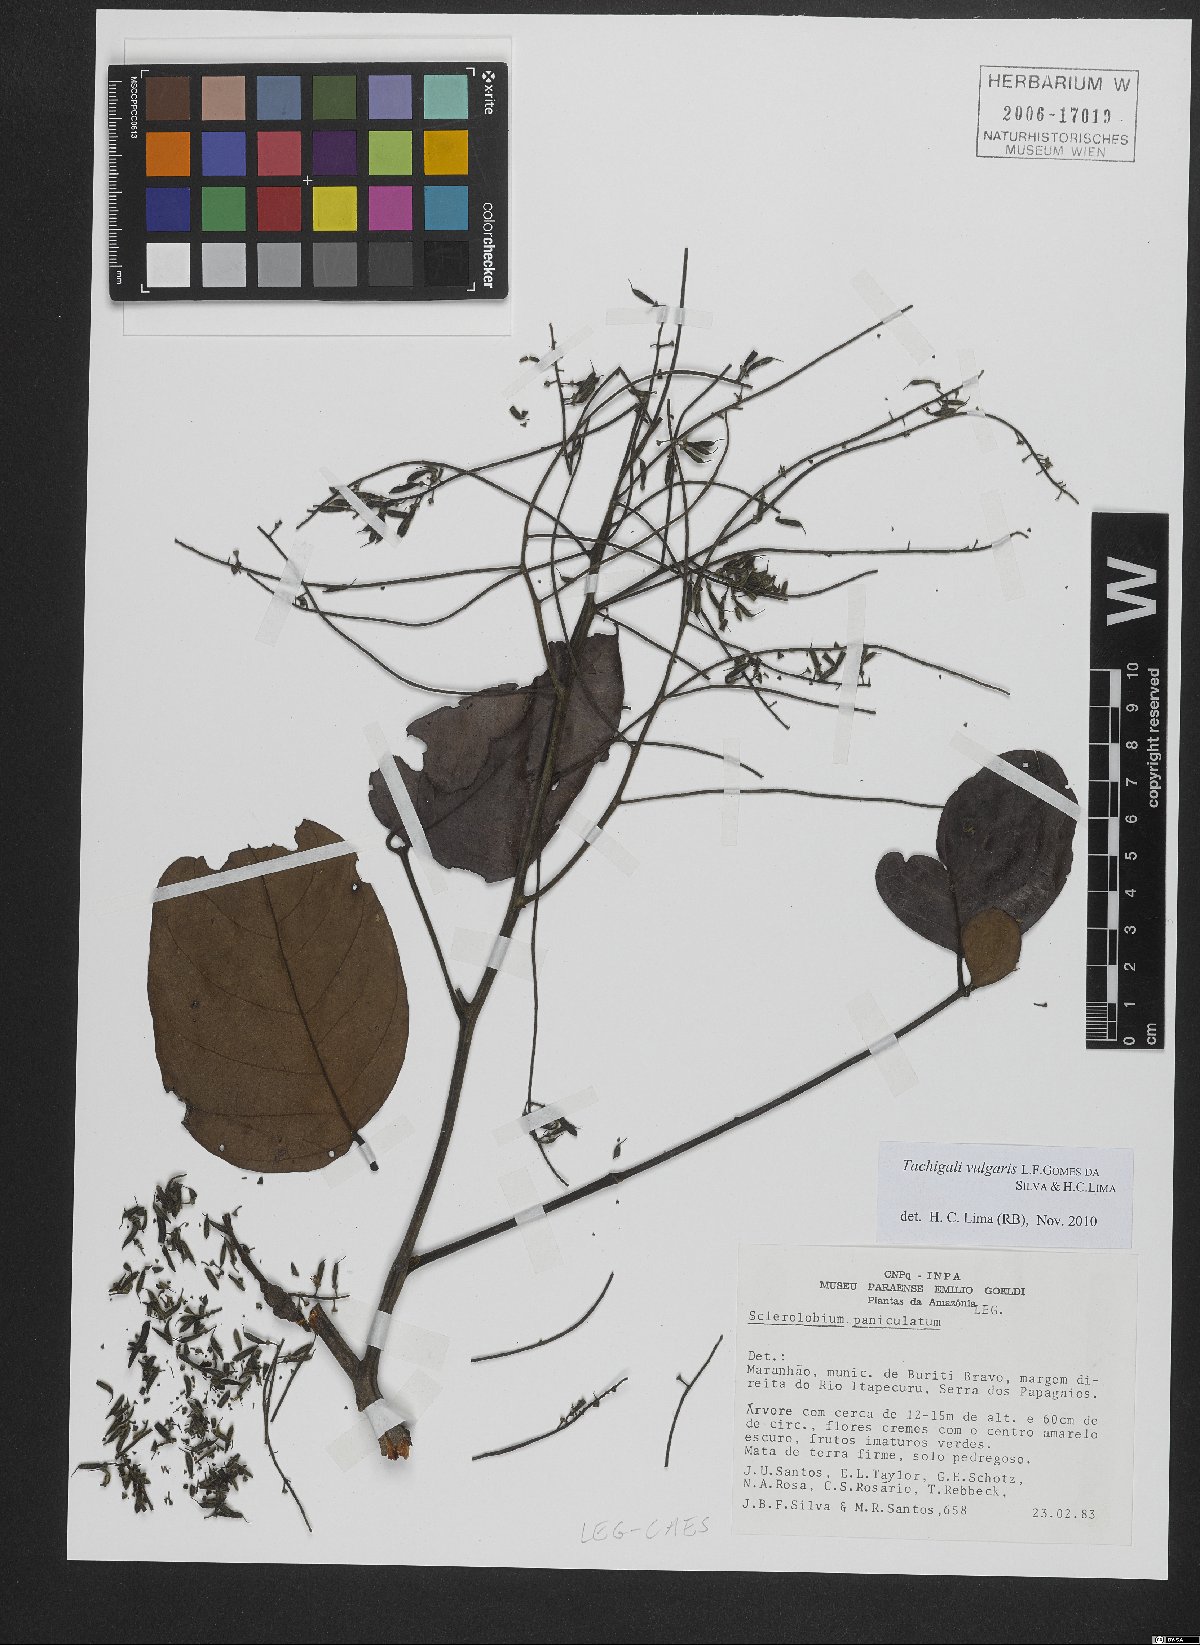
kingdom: Plantae
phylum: Tracheophyta
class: Magnoliopsida
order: Fabales
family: Fabaceae
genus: Tachigali
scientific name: Tachigali vulgaris
